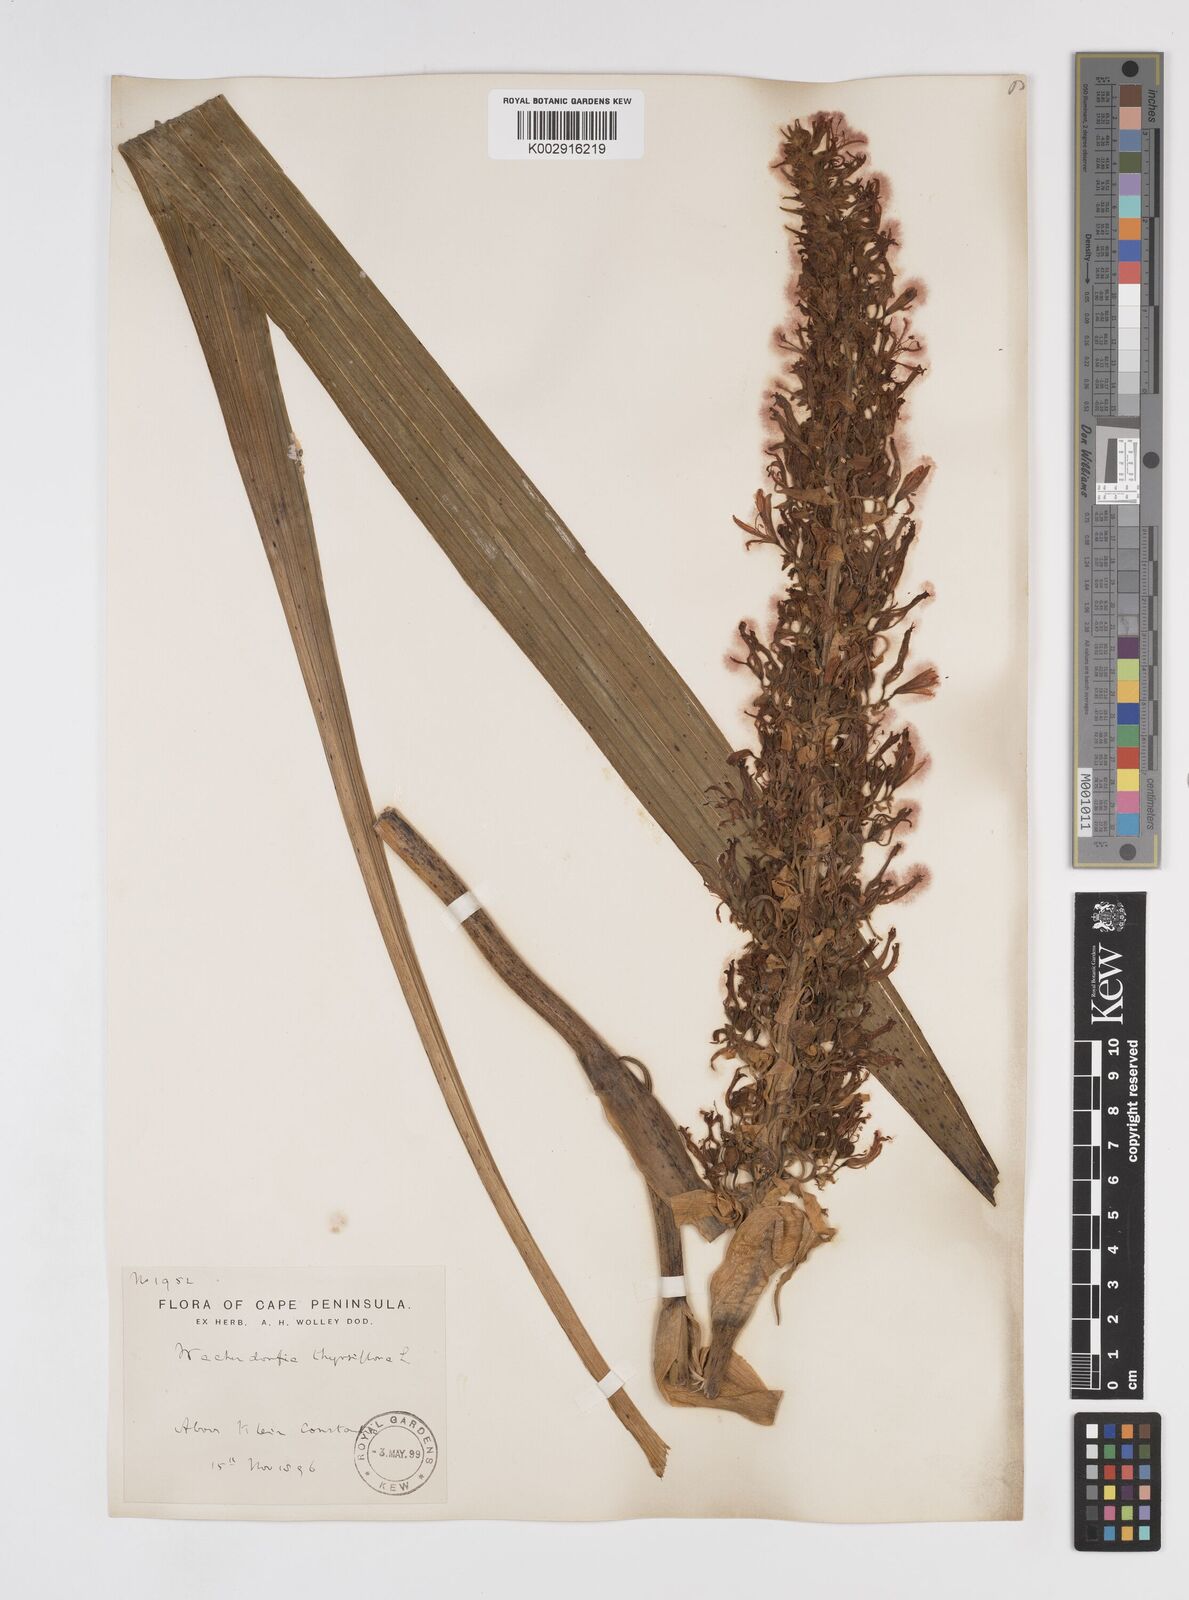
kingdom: Plantae
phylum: Tracheophyta
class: Liliopsida
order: Commelinales
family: Haemodoraceae
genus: Wachendorfia
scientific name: Wachendorfia thyrsiflora
